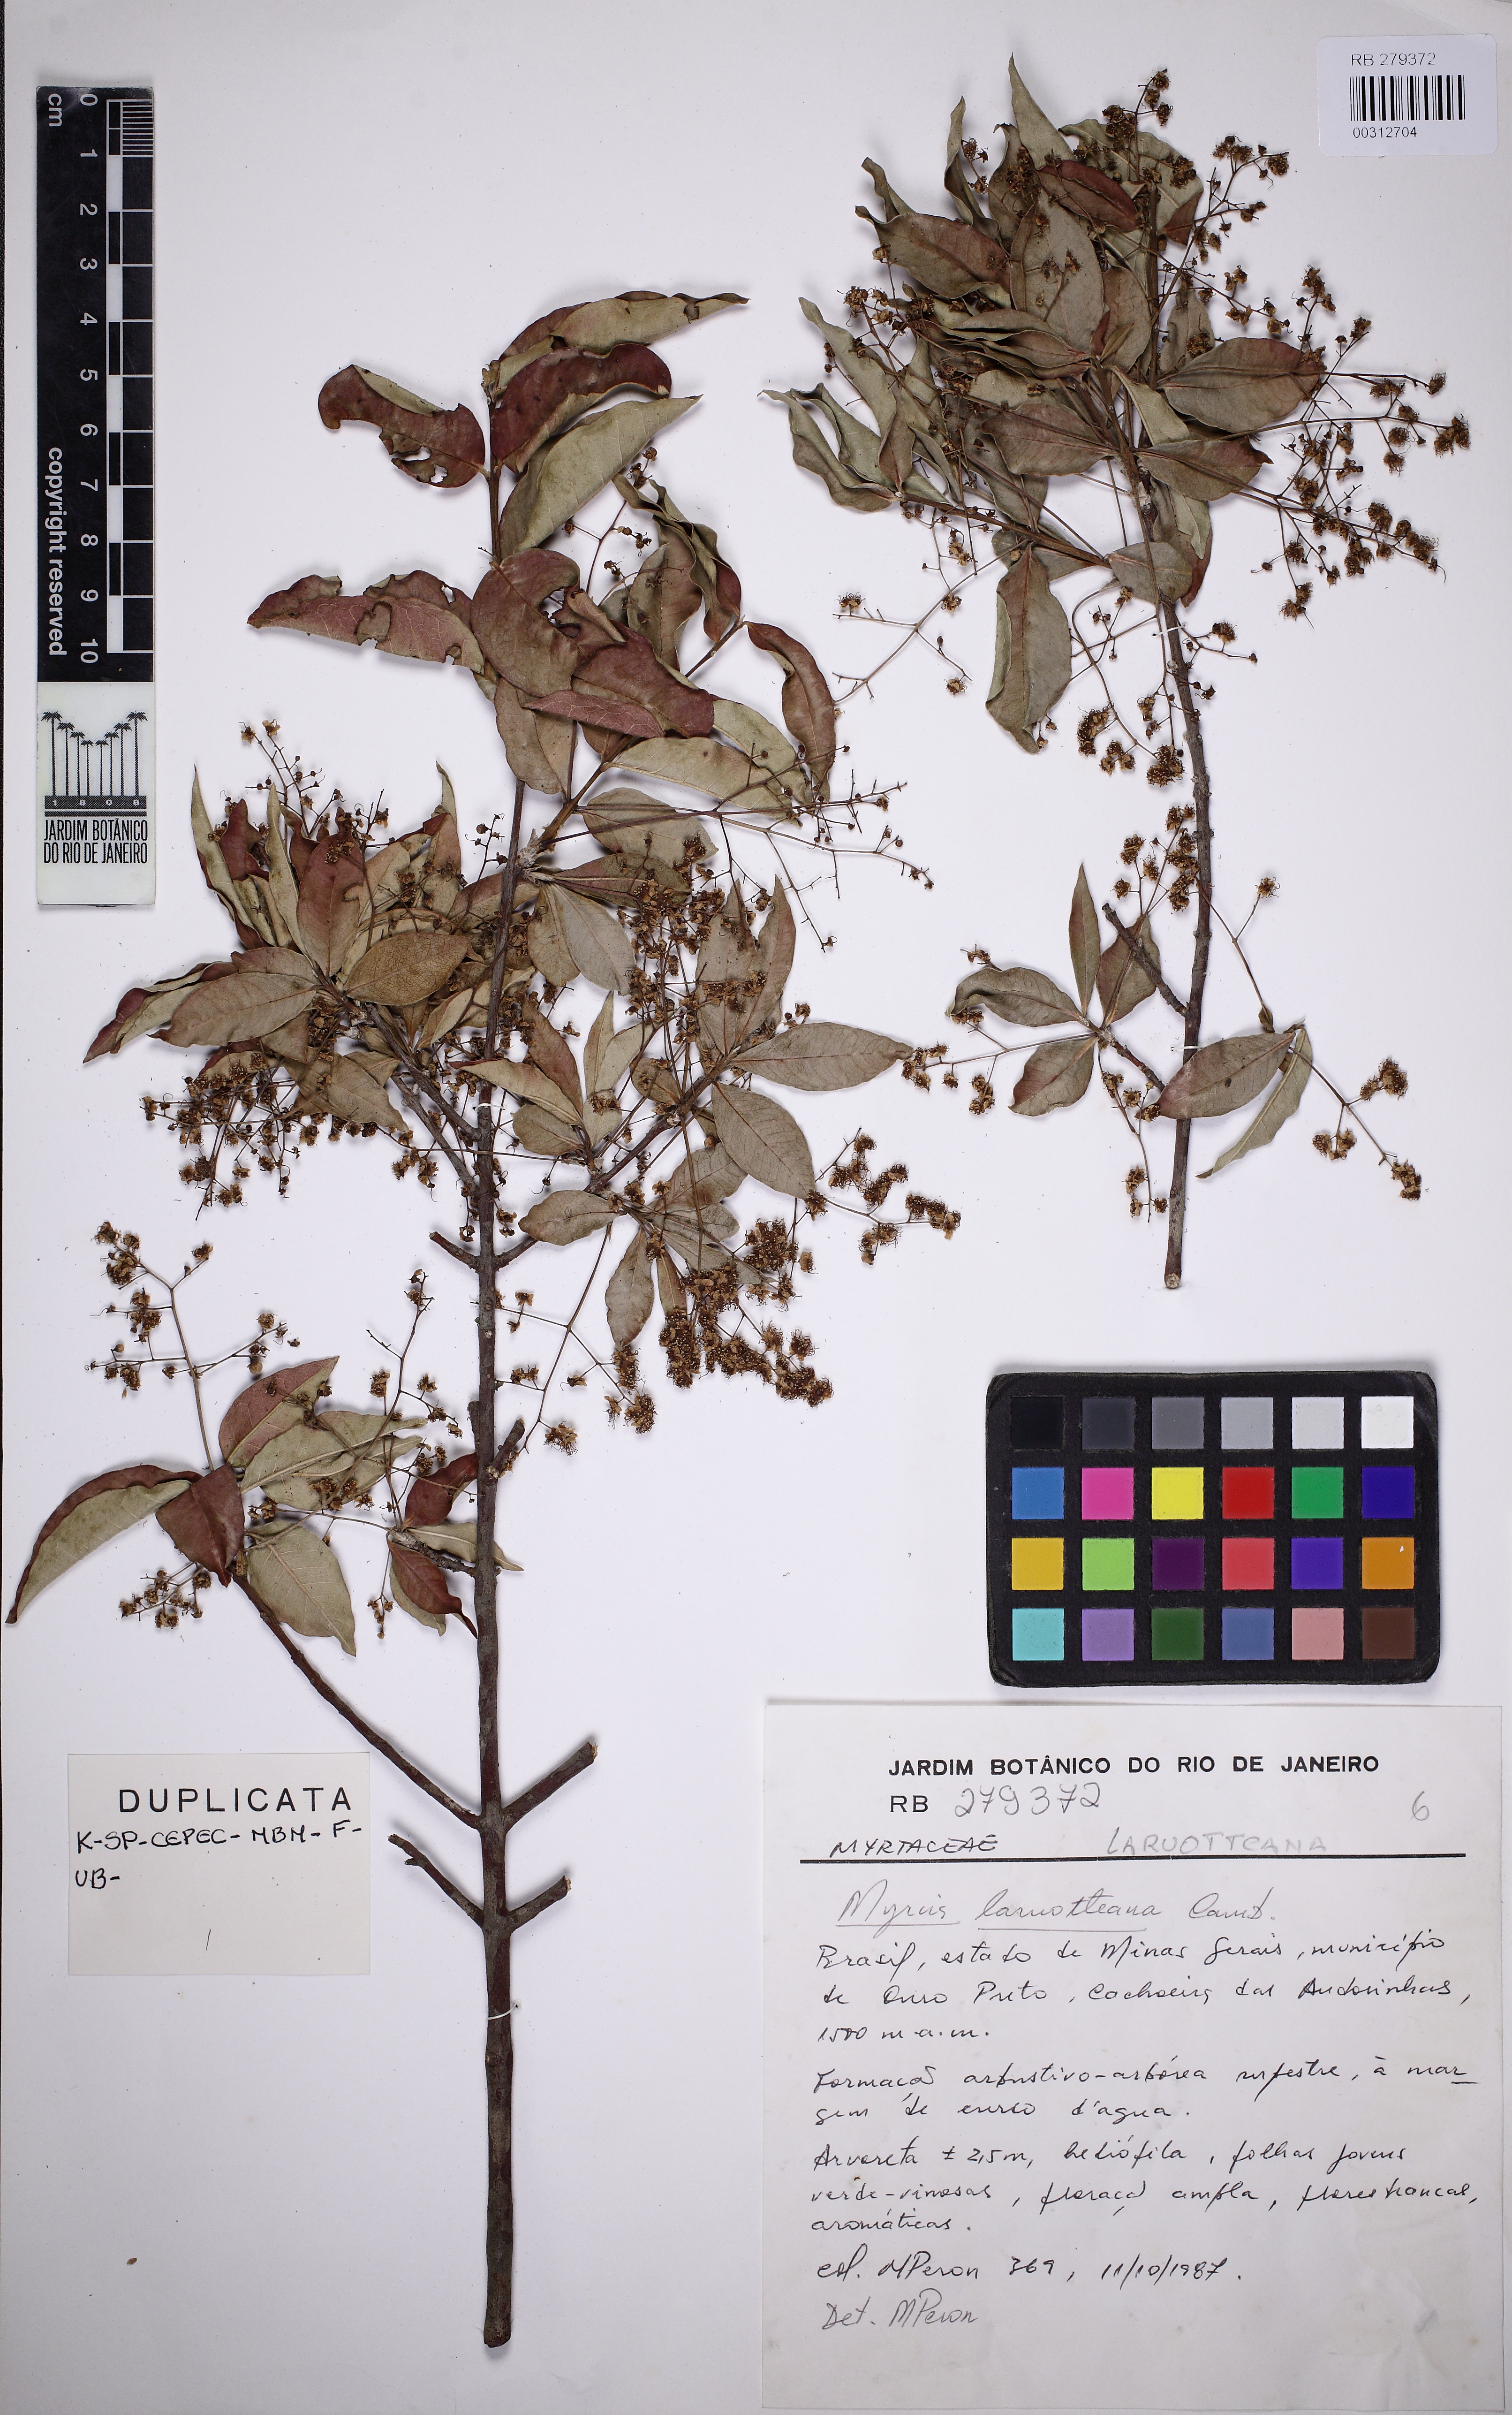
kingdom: Plantae
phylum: Tracheophyta
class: Magnoliopsida
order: Myrtales
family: Myrtaceae
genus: Myrcia
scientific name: Myrcia laruotteana
